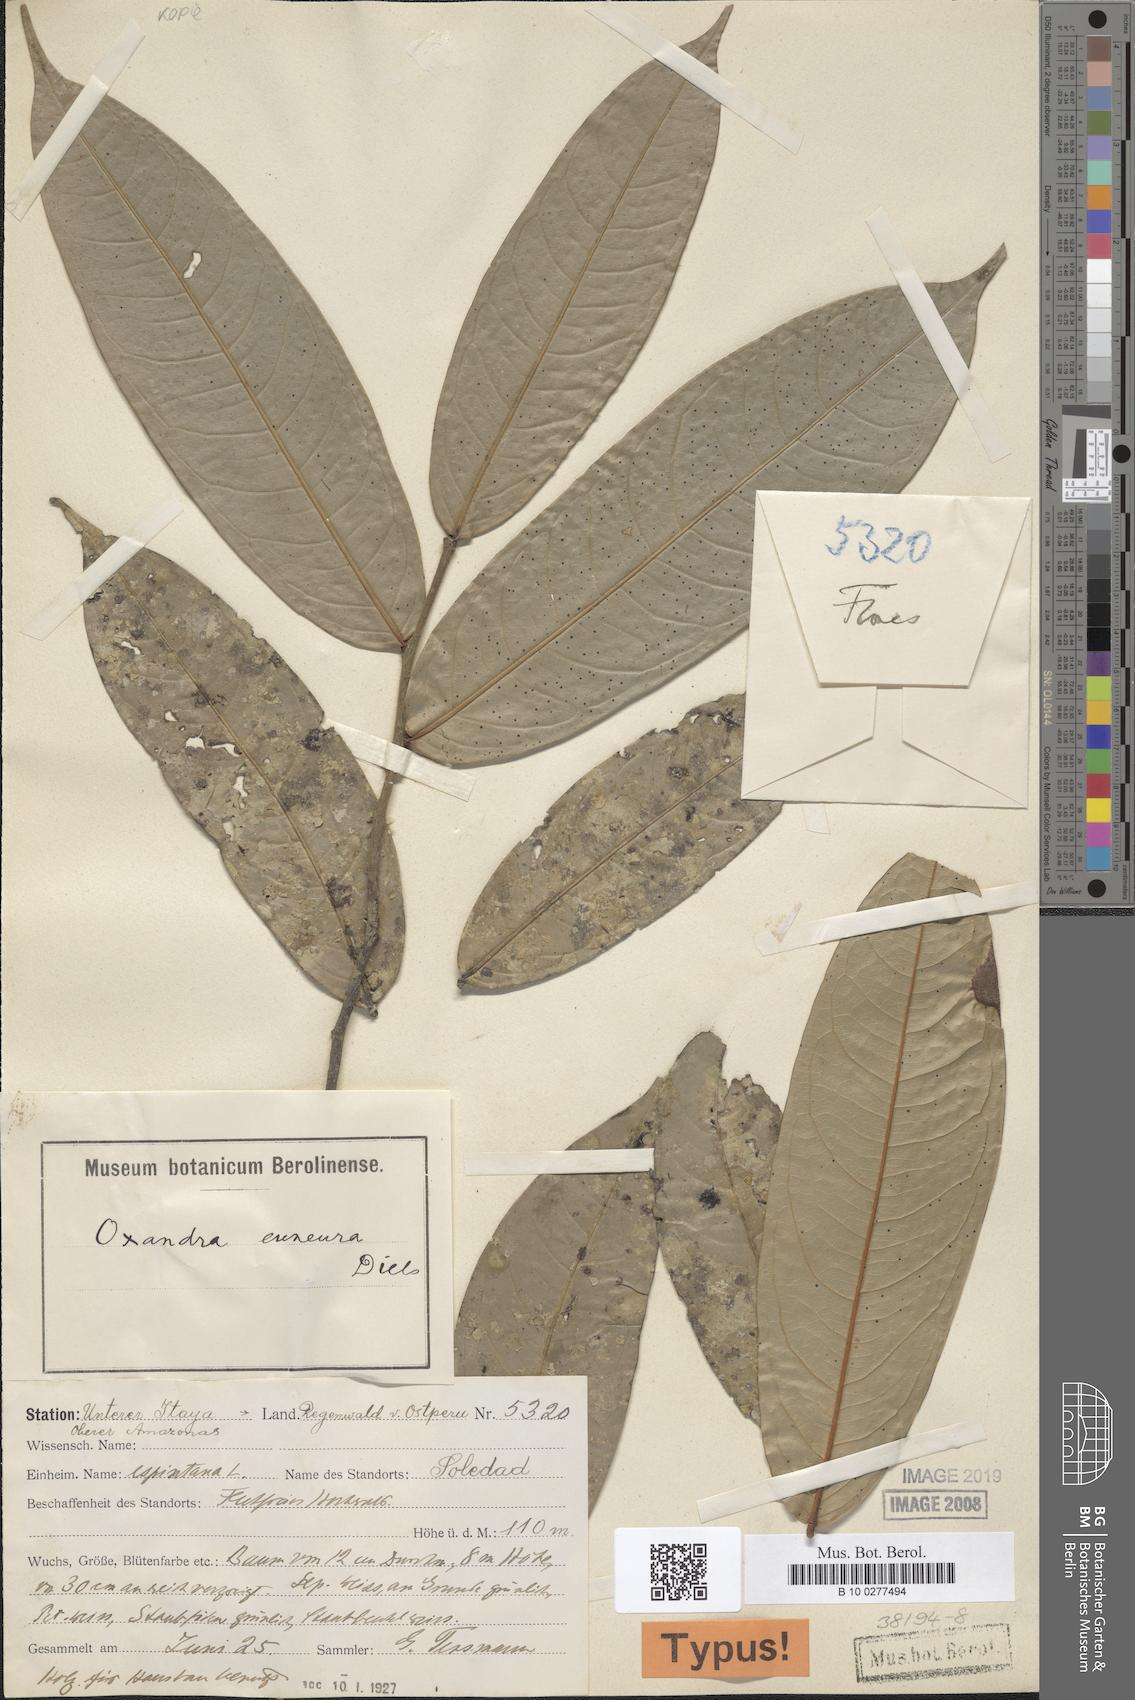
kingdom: Plantae
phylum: Tracheophyta
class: Magnoliopsida
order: Magnoliales
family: Annonaceae
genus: Oxandra
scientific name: Oxandra euneura
